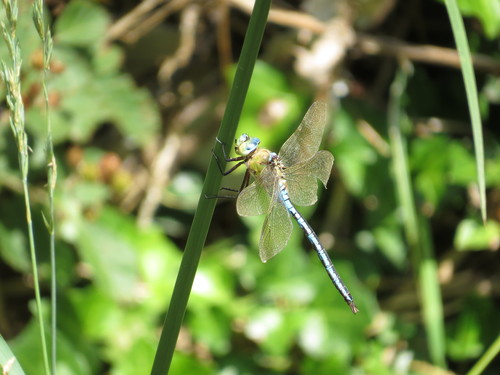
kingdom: Animalia
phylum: Arthropoda
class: Insecta
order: Odonata
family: Aeshnidae
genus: Anax
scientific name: Anax imperator
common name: Emperor dragonfly
